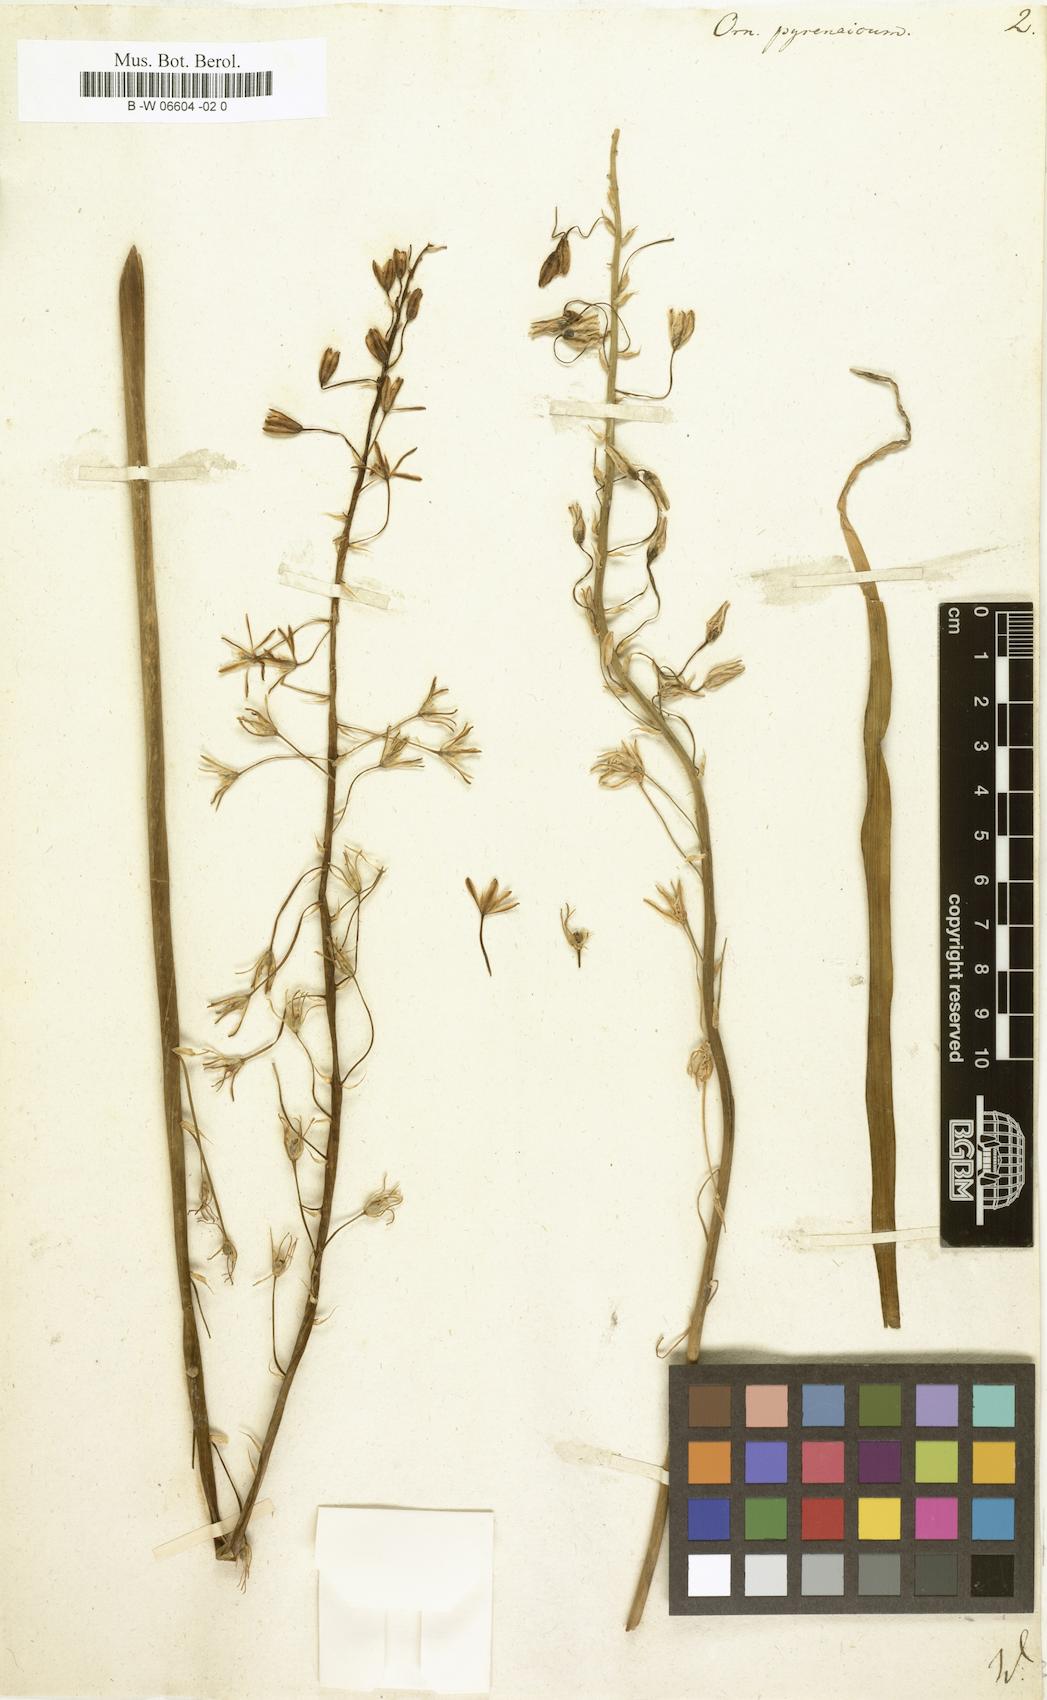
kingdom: Plantae
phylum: Tracheophyta
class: Liliopsida
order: Asparagales
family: Asparagaceae
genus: Ornithogalum
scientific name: Ornithogalum pyrenaicum
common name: Spiked star-of-bethlehem
